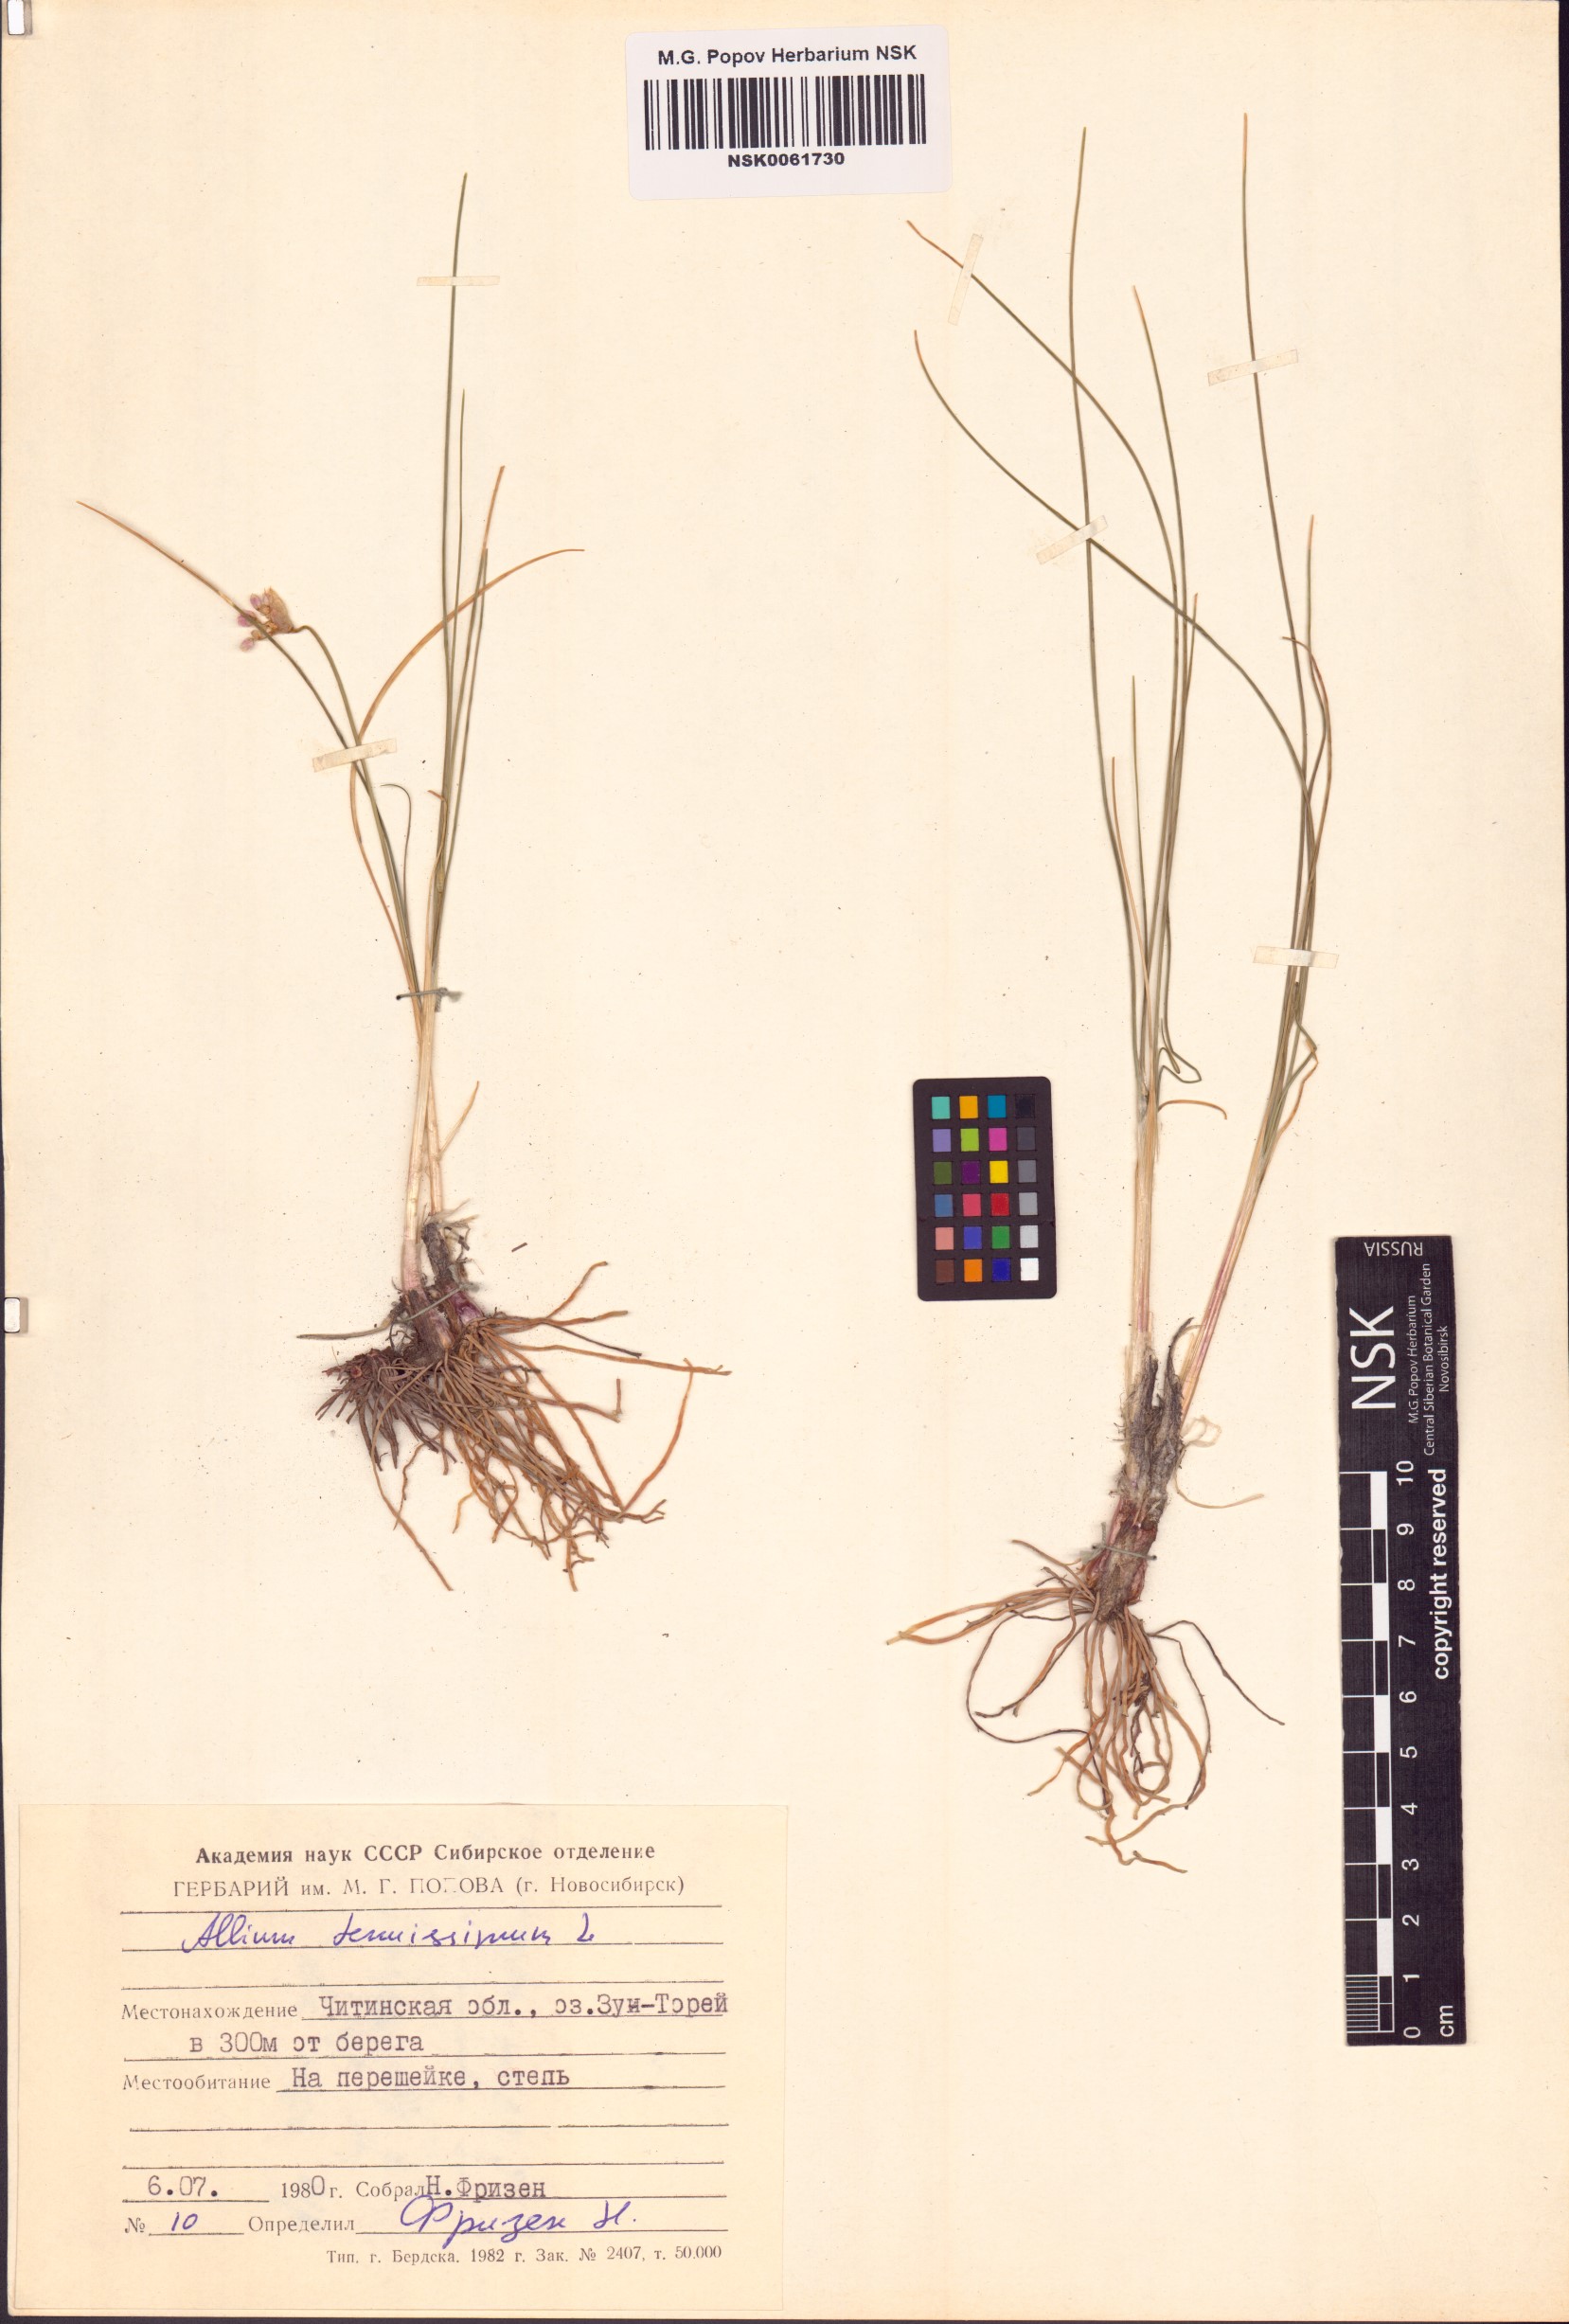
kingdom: Plantae
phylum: Tracheophyta
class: Liliopsida
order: Asparagales
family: Amaryllidaceae
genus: Allium
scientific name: Allium tenuissimum
